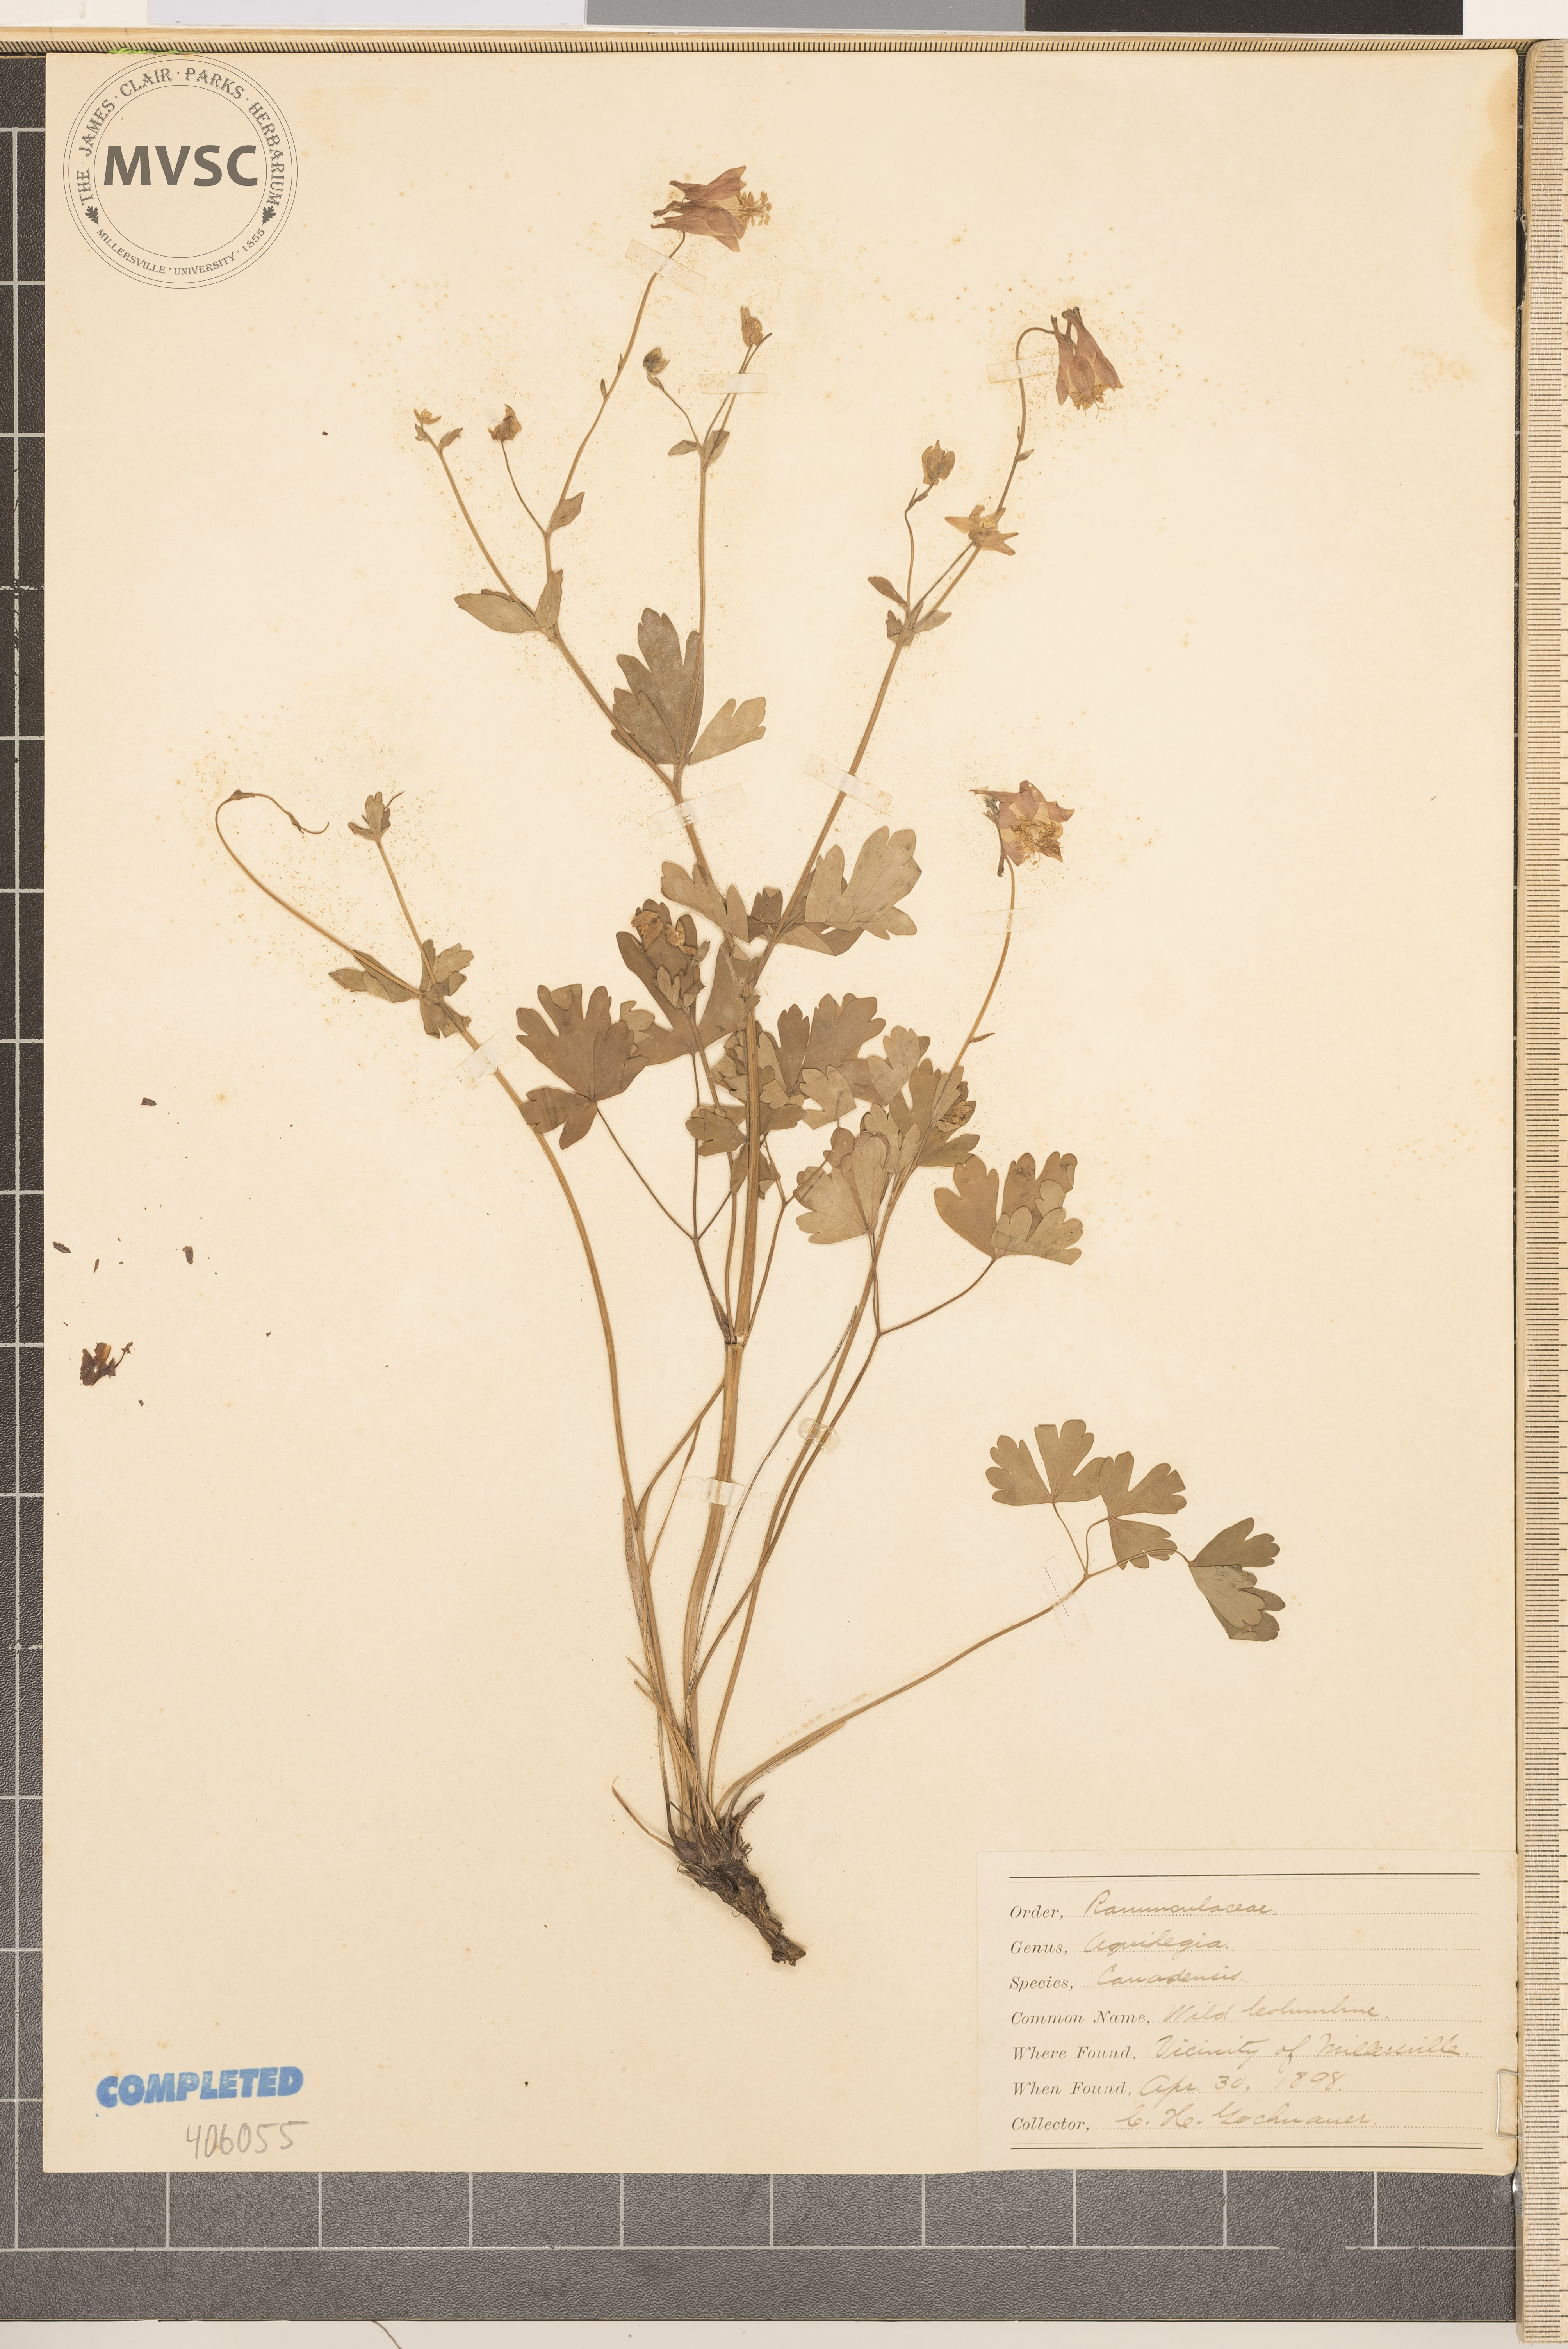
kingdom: Plantae
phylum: Tracheophyta
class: Magnoliopsida
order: Ranunculales
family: Ranunculaceae
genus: Aquilegia
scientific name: Aquilegia canadensis
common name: American columbine
